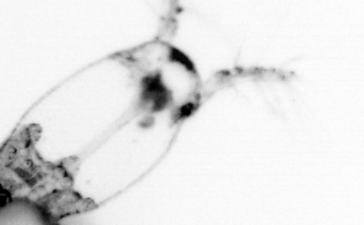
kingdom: Animalia
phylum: Arthropoda
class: Copepoda
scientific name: Copepoda
